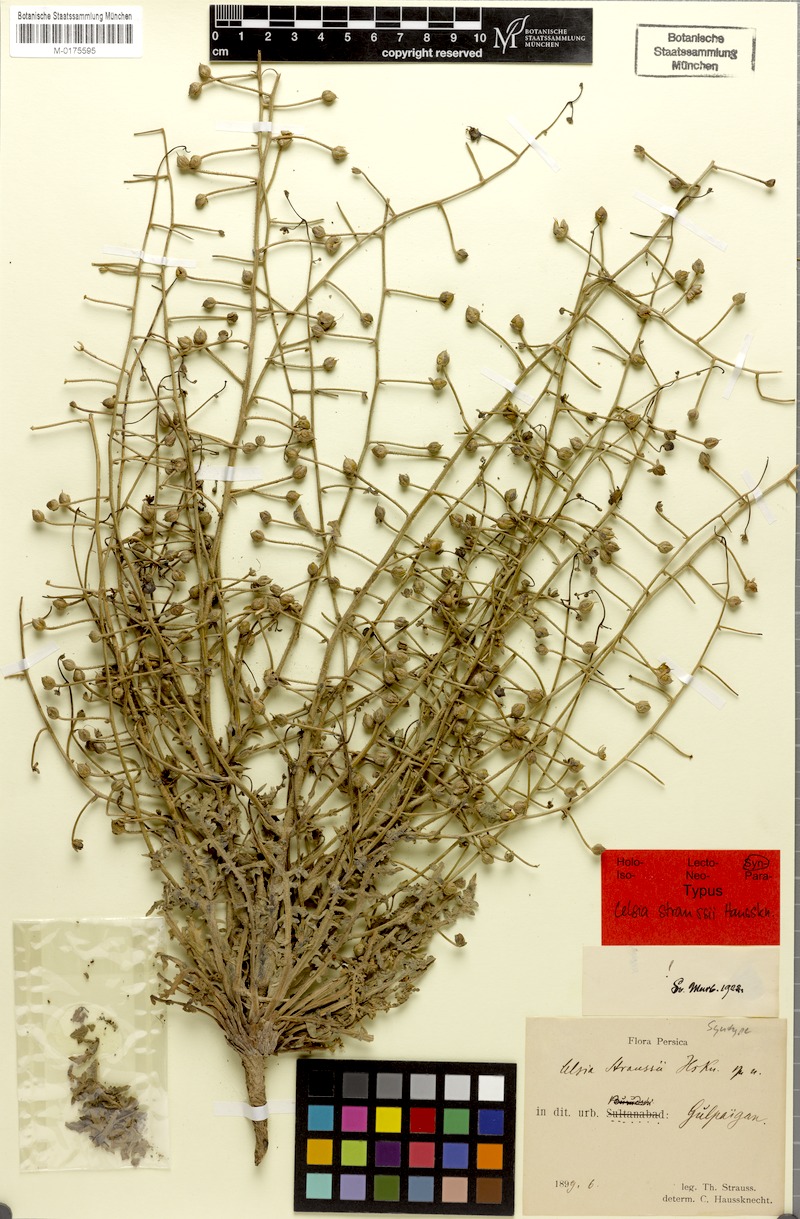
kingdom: Plantae
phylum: Tracheophyta
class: Magnoliopsida
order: Lamiales
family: Scrophulariaceae
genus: Verbascum
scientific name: Verbascum straussii
